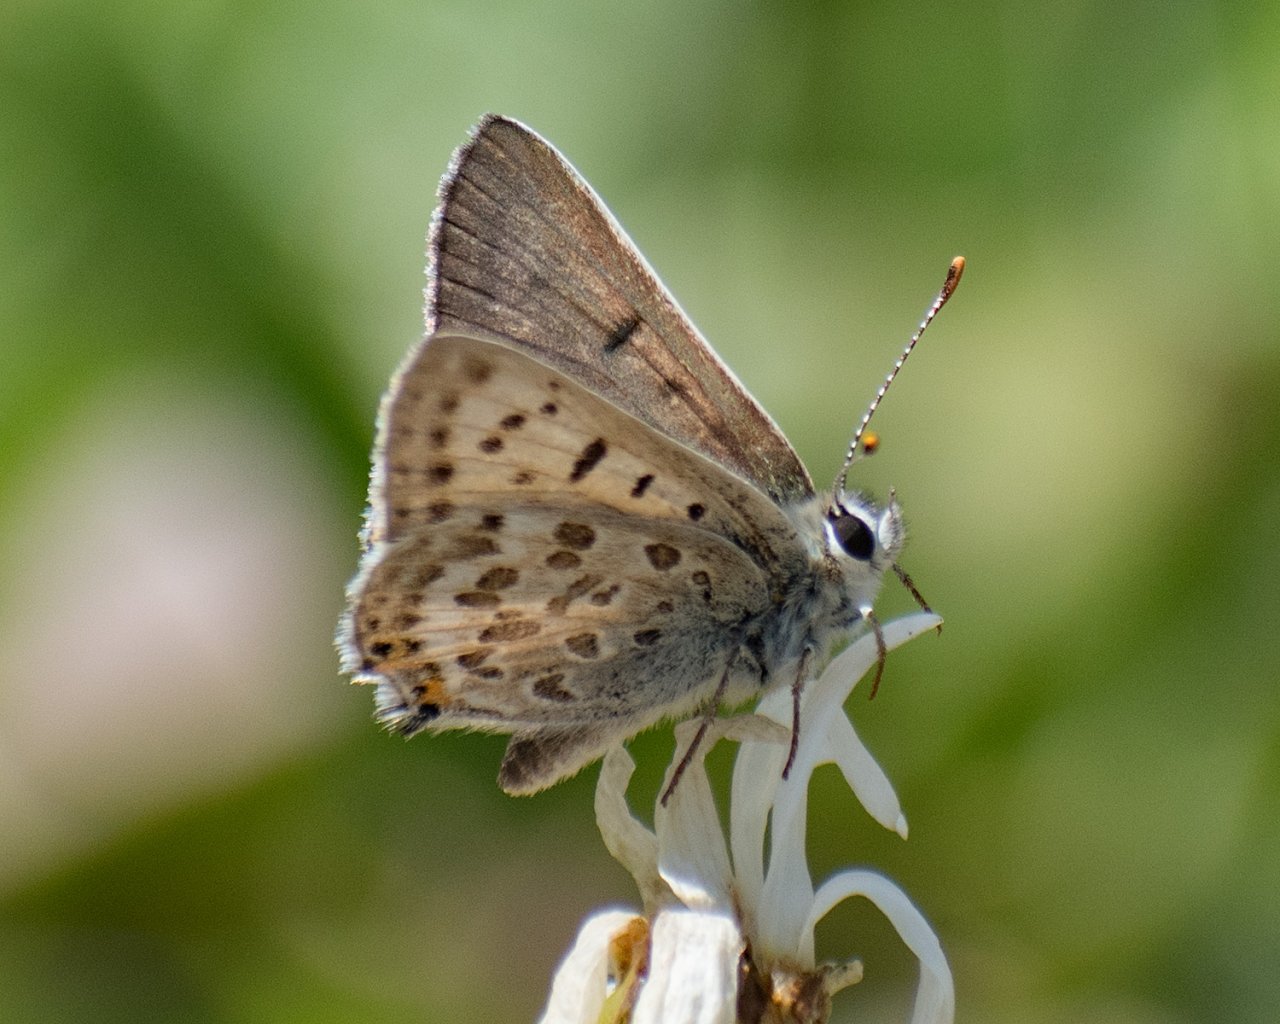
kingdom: Animalia
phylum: Arthropoda
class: Insecta
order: Lepidoptera
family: Lycaenidae
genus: Lycaena
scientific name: Lycaena editha
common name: Edith's Copper
